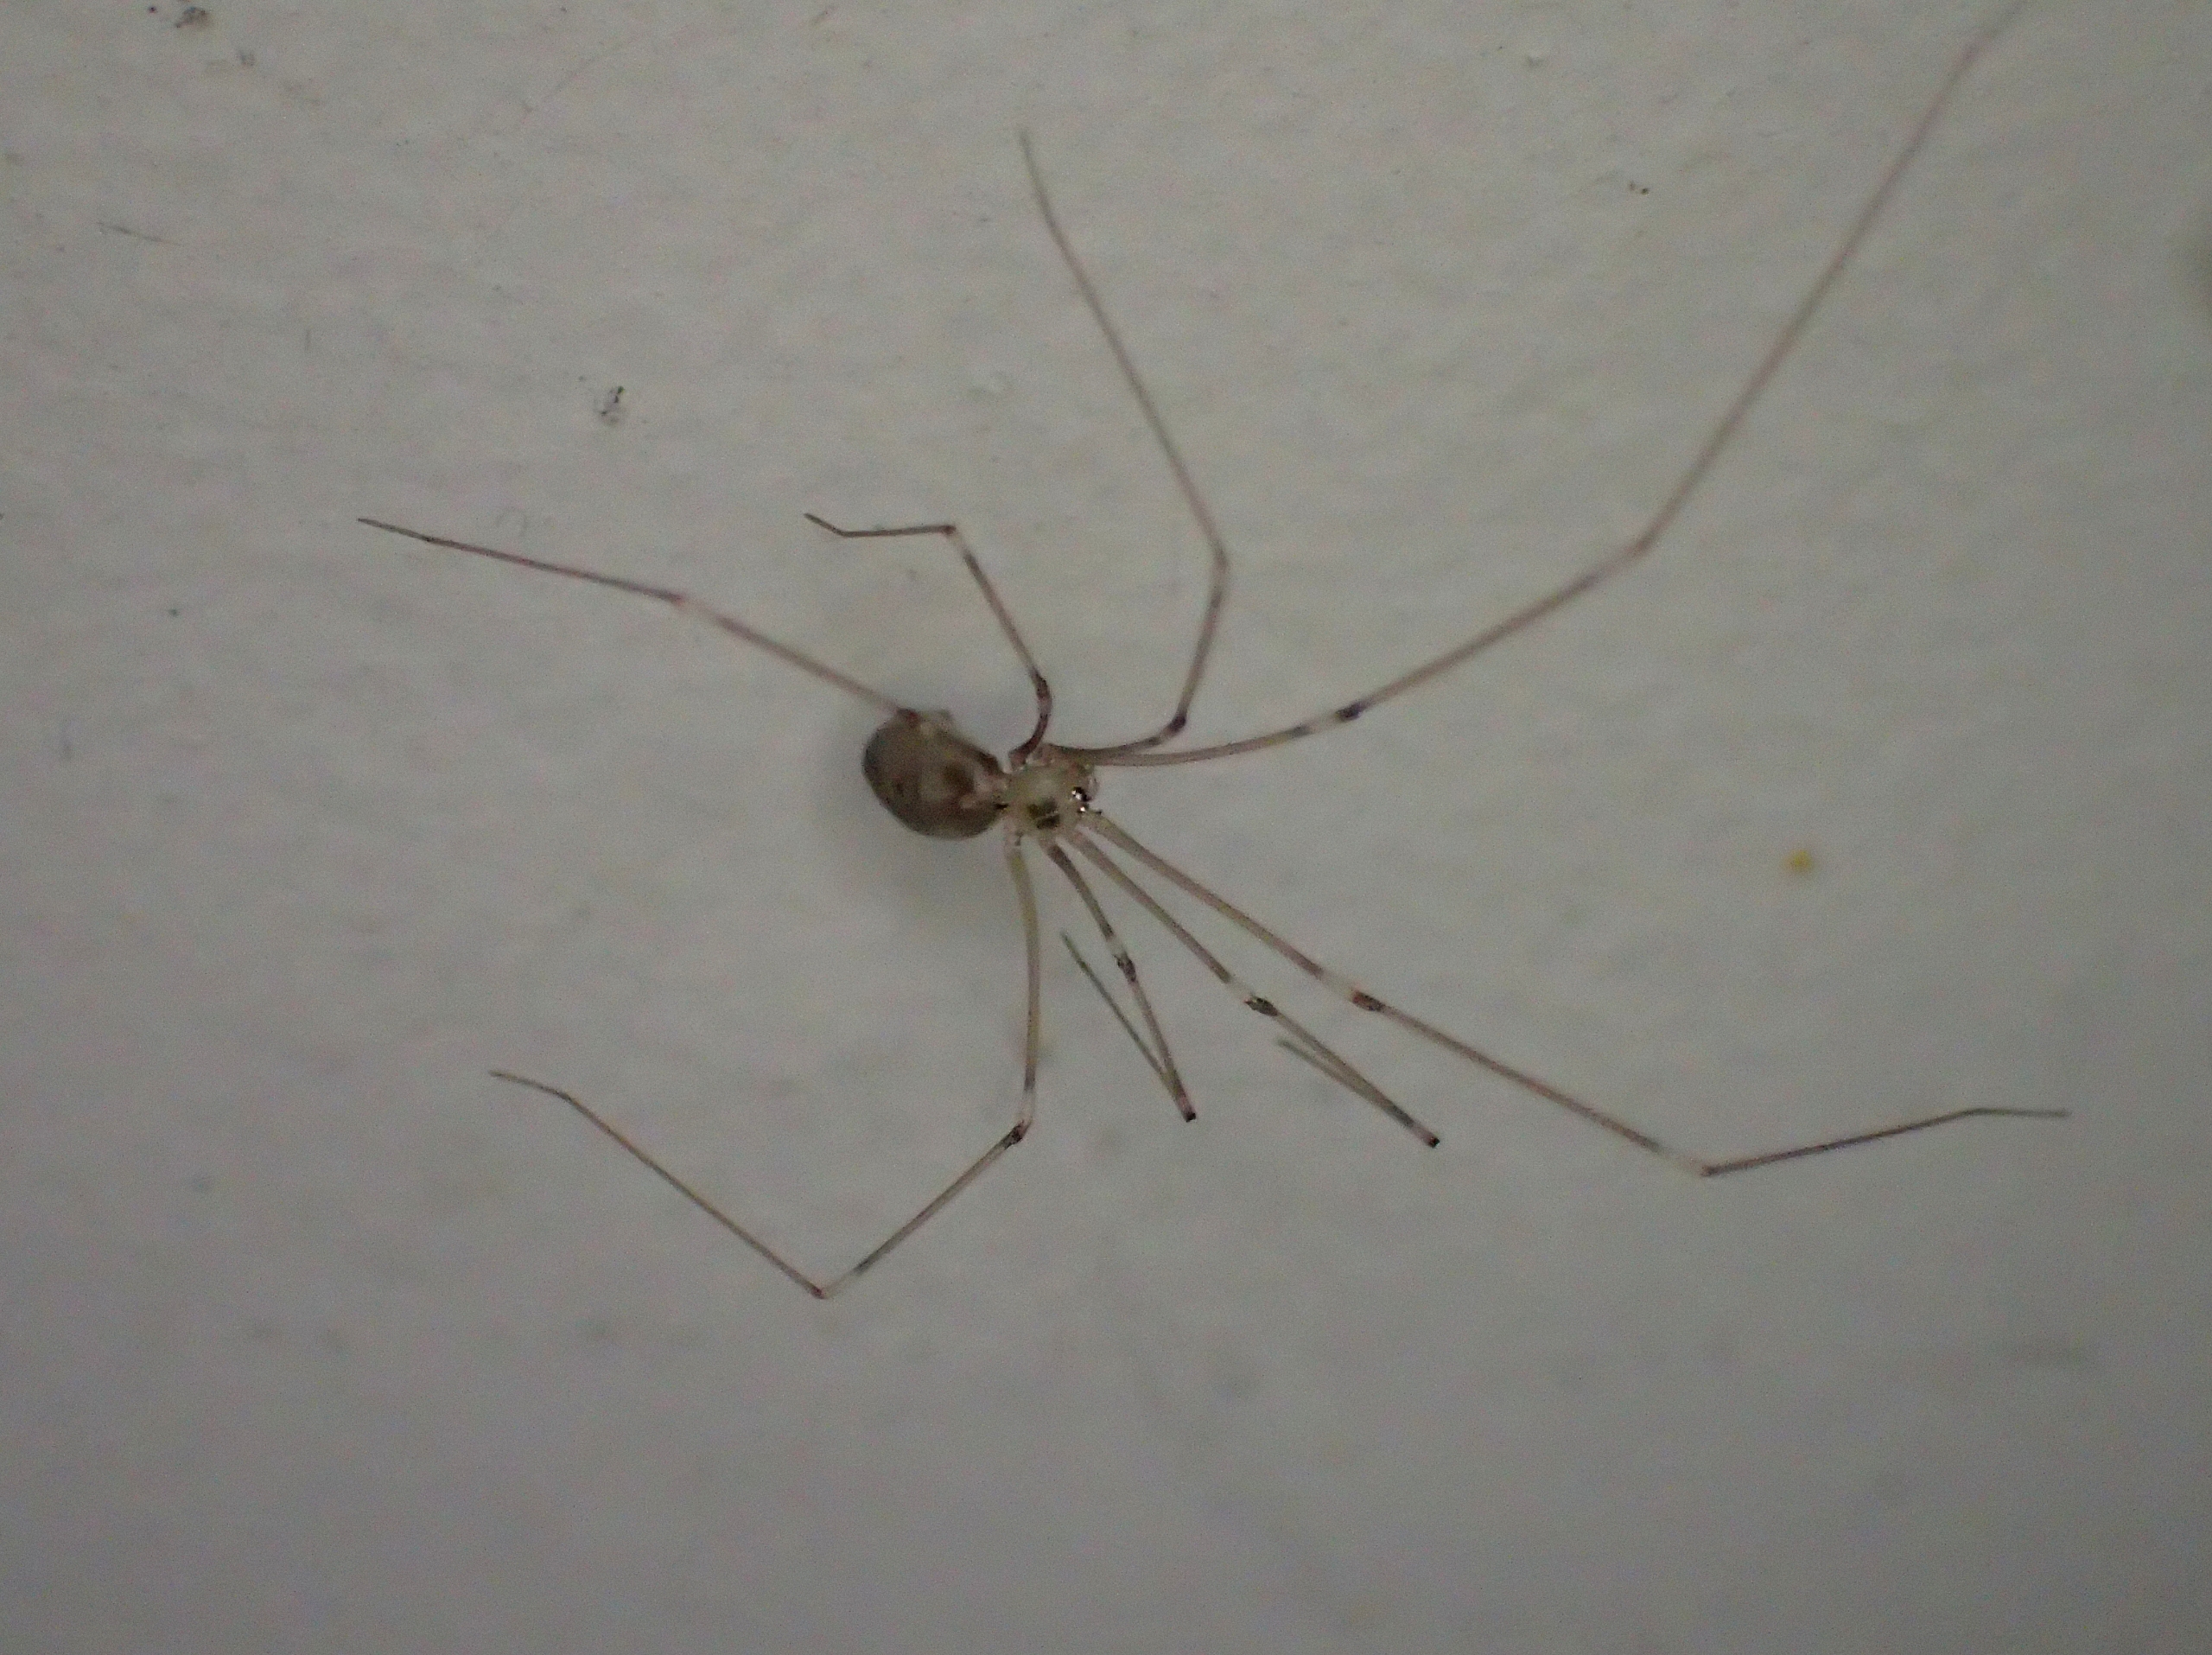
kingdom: Animalia
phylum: Arthropoda
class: Arachnida
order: Araneae
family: Pholcidae
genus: Pholcus
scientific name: Pholcus phalangioides
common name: Mejeredderkop
